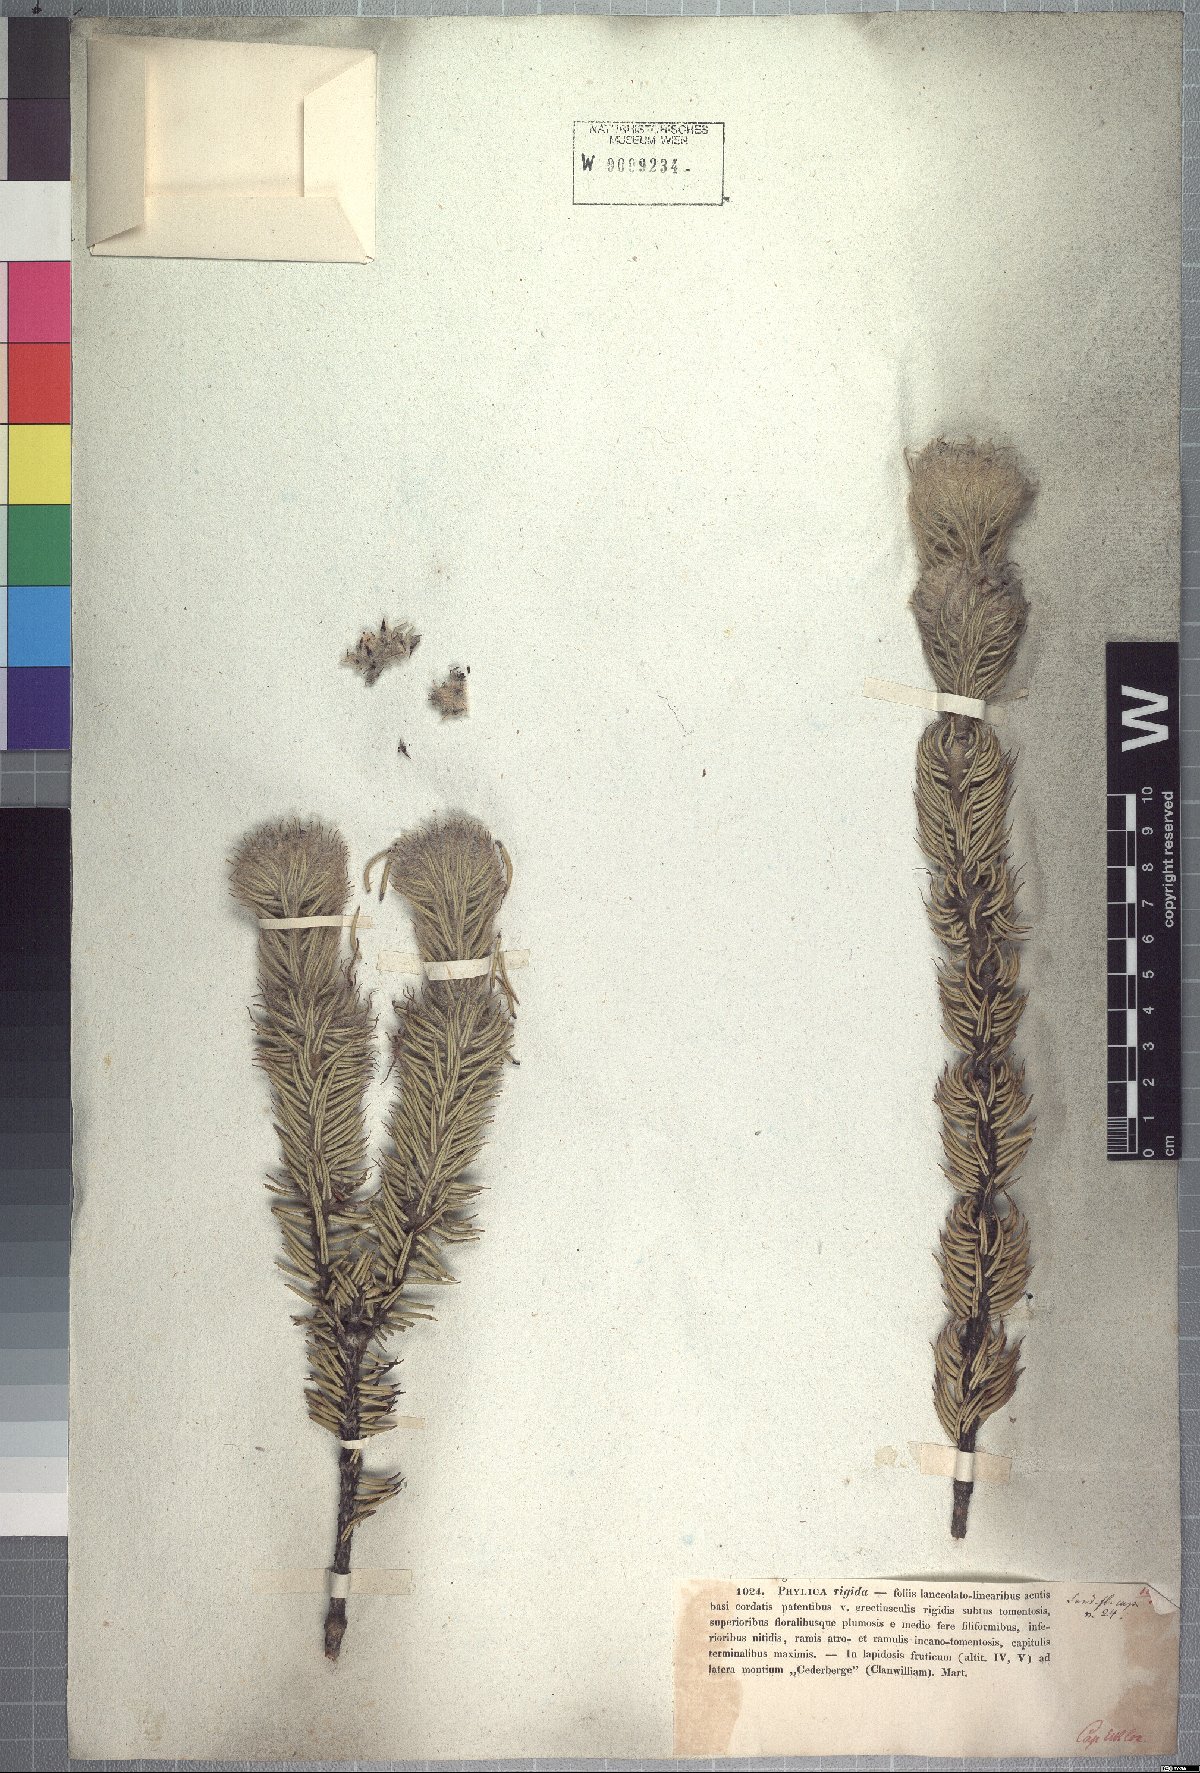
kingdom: Plantae
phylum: Tracheophyta
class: Magnoliopsida
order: Rosales
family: Rhamnaceae
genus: Phylica
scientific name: Phylica rigida
